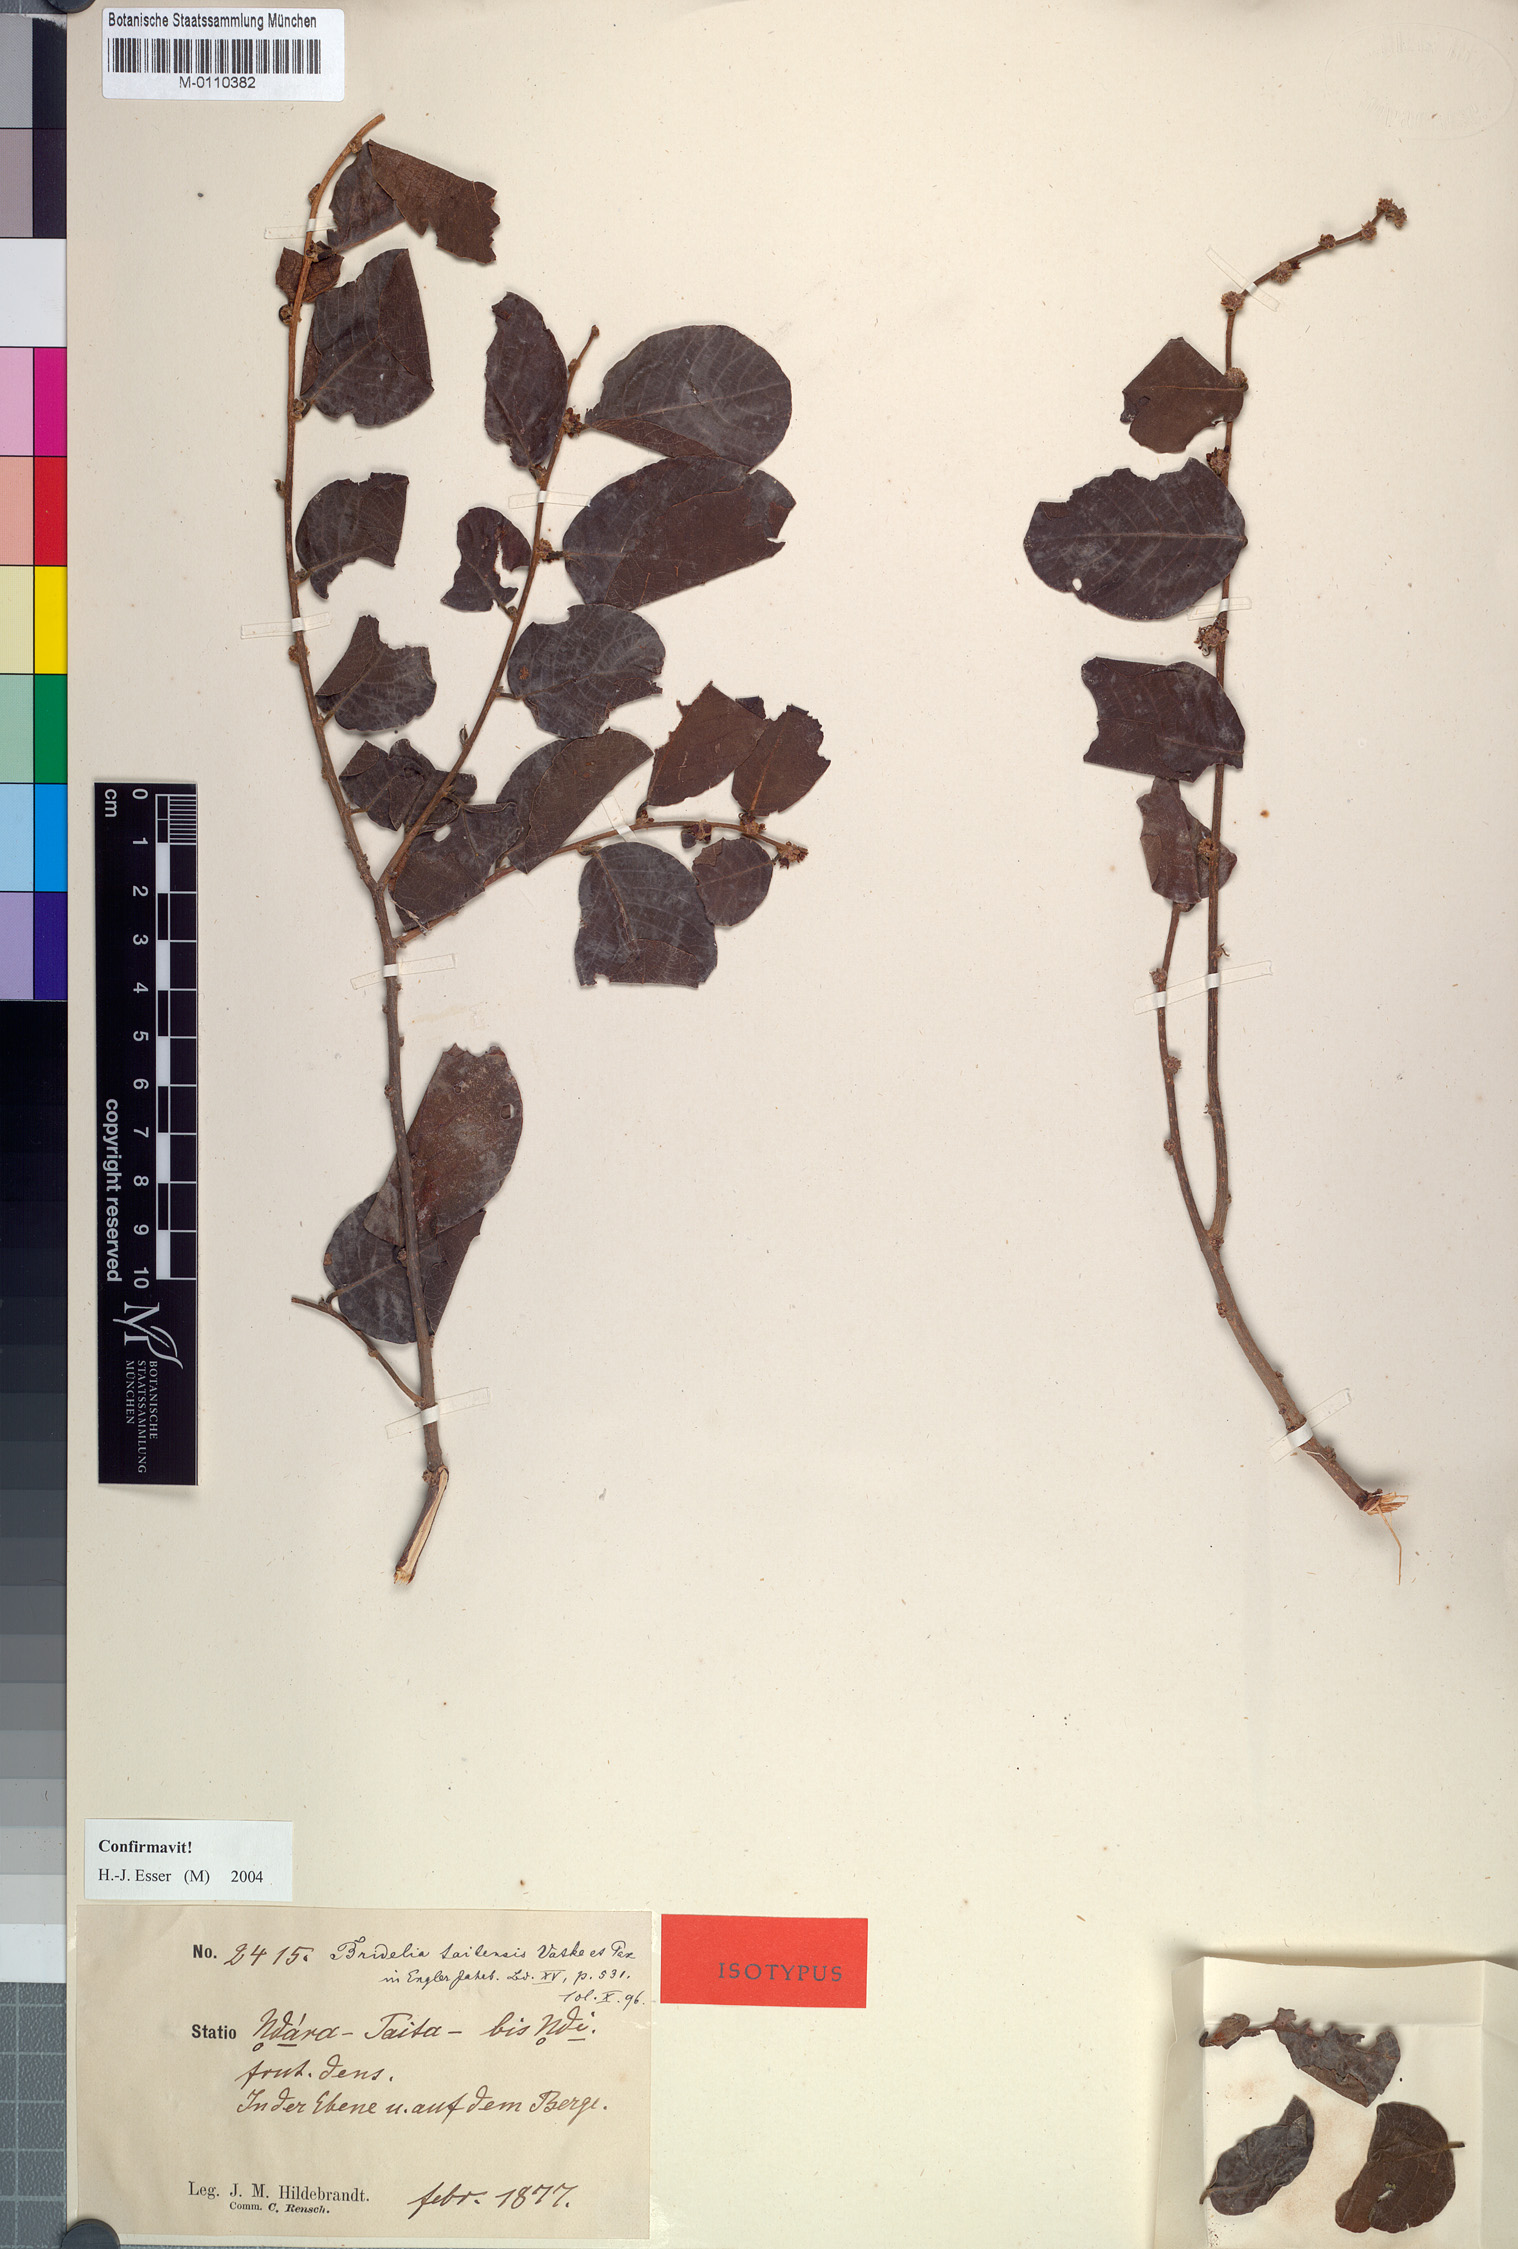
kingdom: Plantae
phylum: Tracheophyta
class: Magnoliopsida
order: Malpighiales
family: Phyllanthaceae
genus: Bridelia
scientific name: Bridelia taitensis
